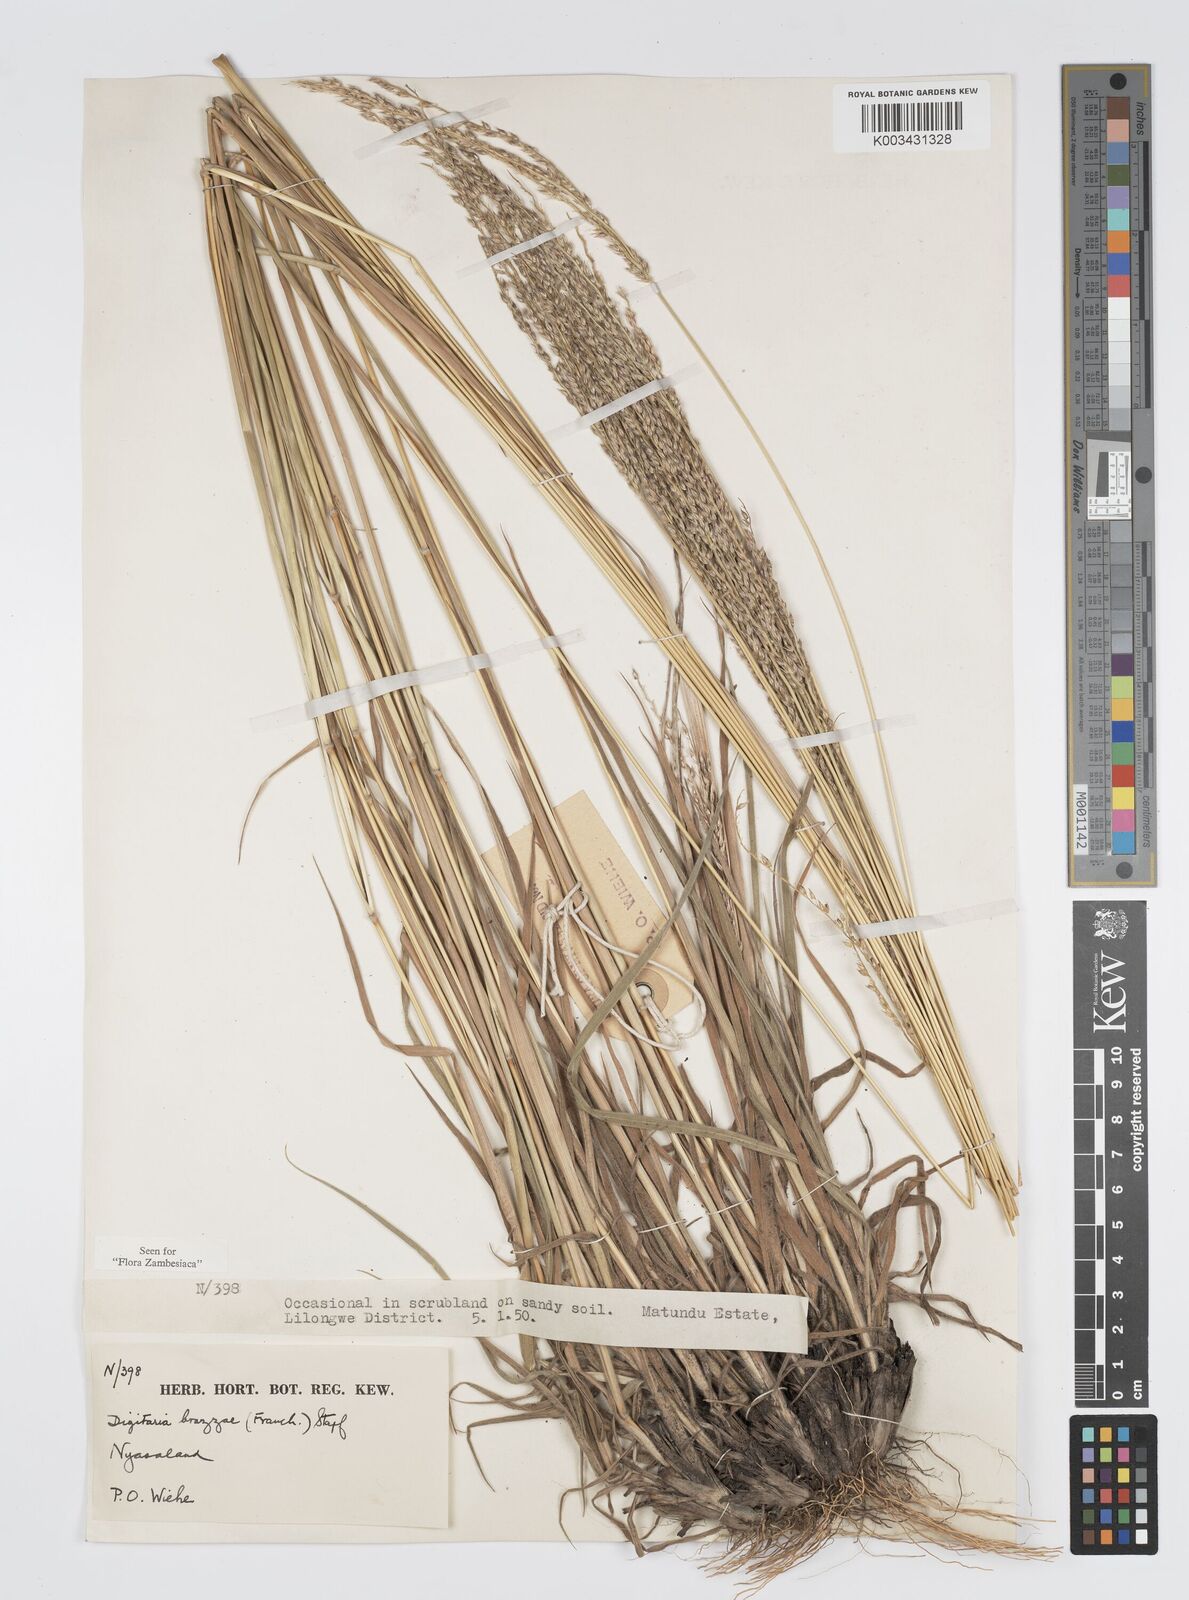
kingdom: Plantae
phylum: Tracheophyta
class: Liliopsida
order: Poales
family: Poaceae
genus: Digitaria
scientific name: Digitaria brazzae
